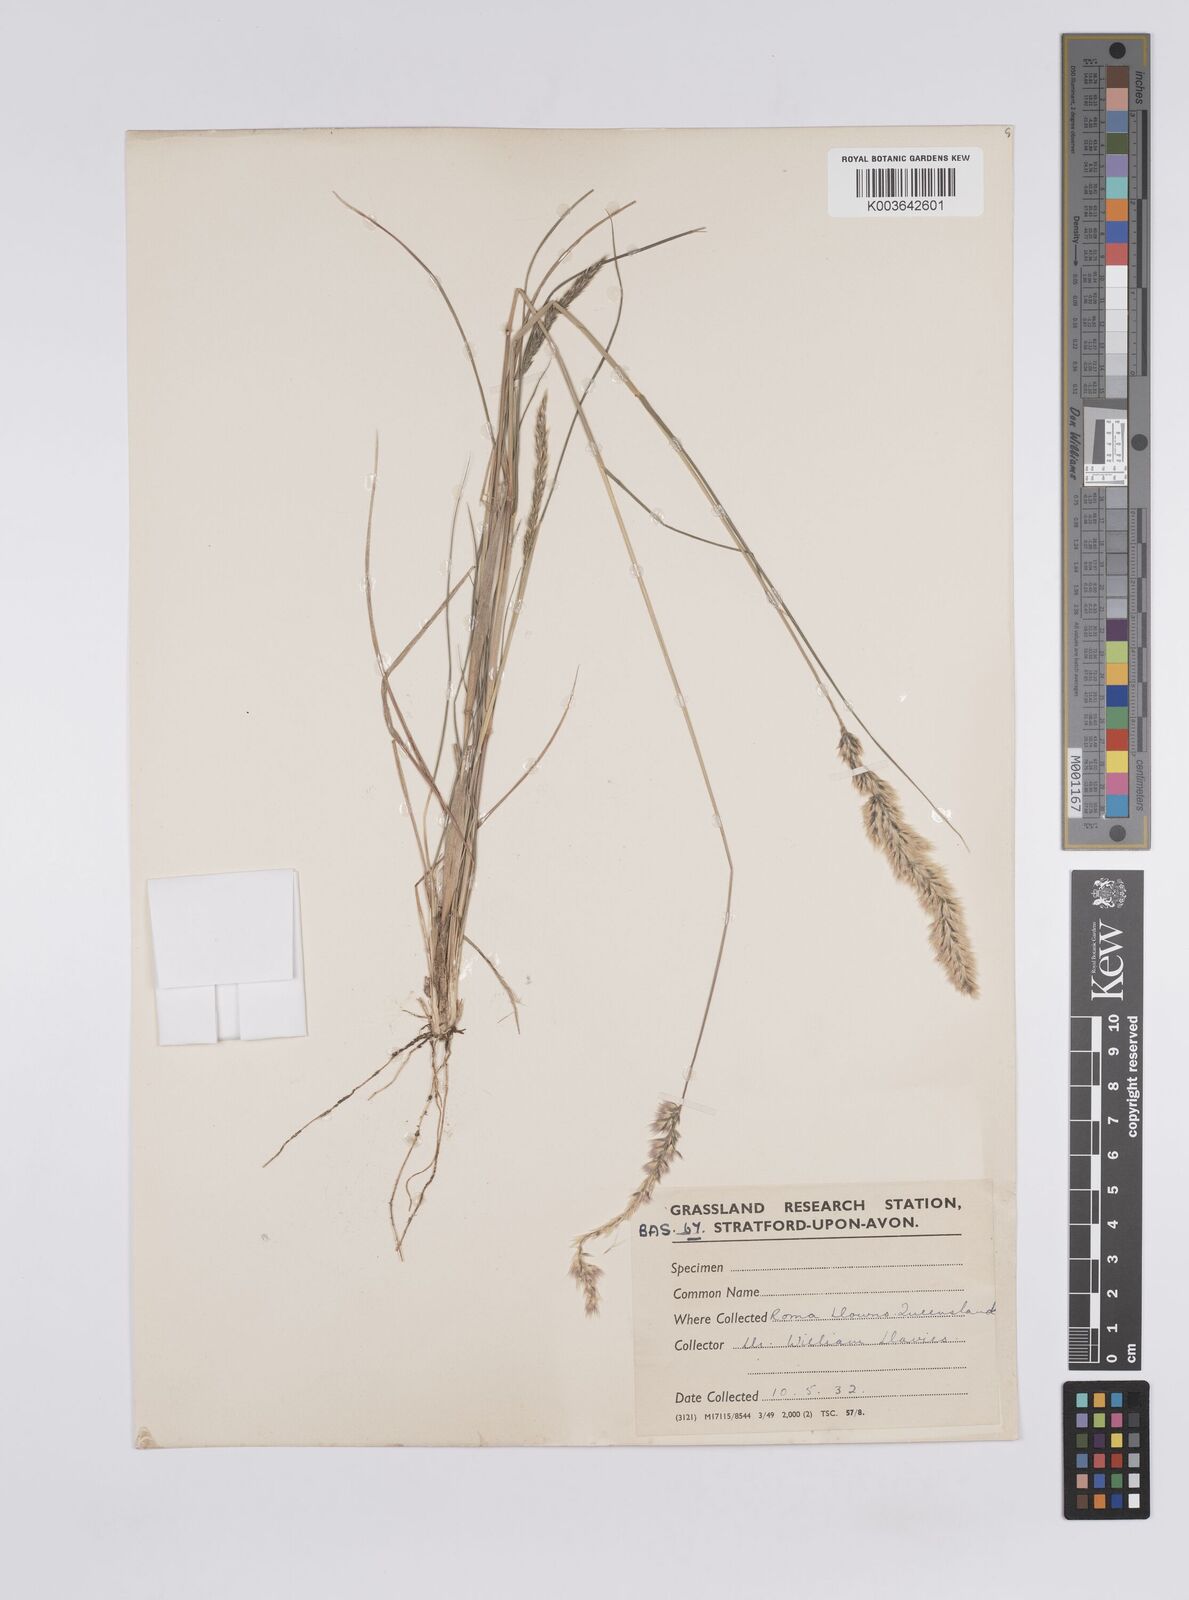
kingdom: Plantae
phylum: Tracheophyta
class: Liliopsida
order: Poales
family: Poaceae
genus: Enneapogon
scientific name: Enneapogon truncatus
